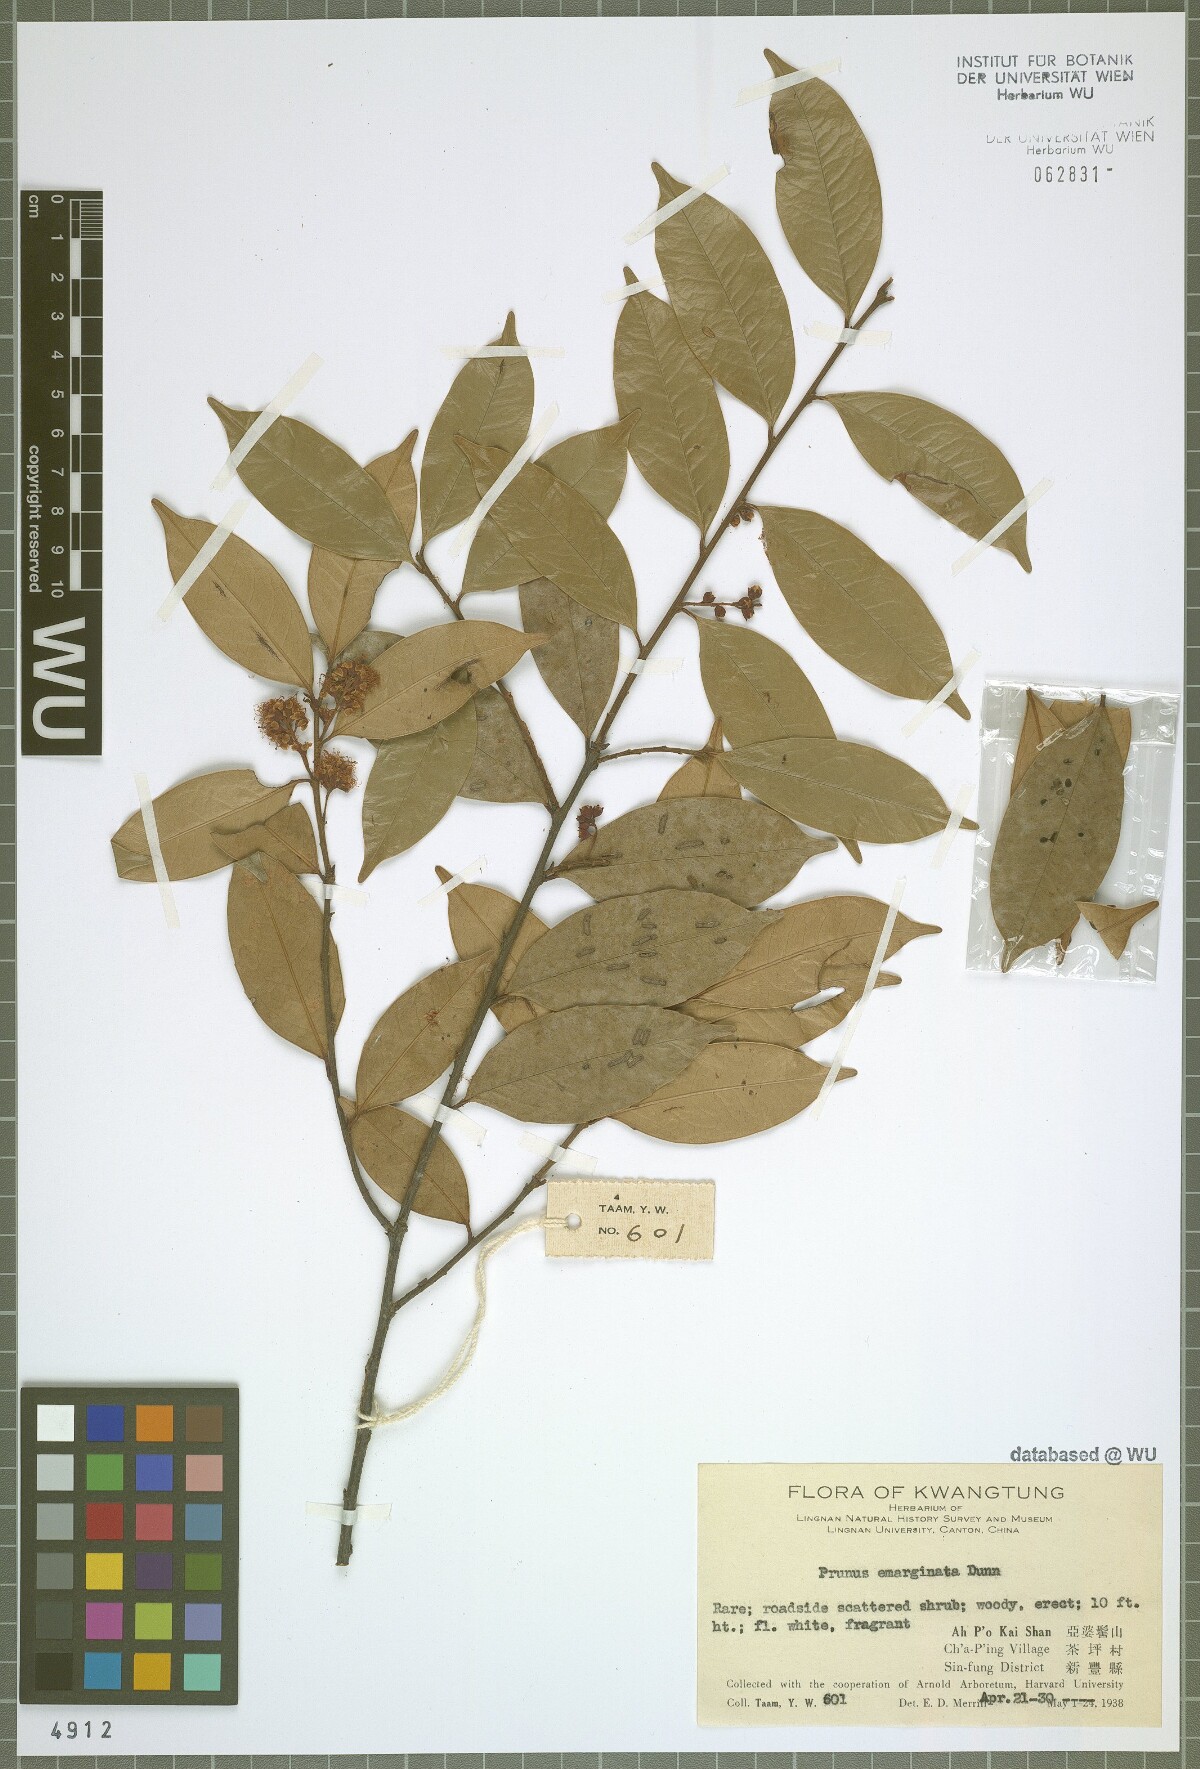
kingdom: Plantae
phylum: Tracheophyta
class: Magnoliopsida
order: Rosales
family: Rosaceae
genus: Prunus
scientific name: Prunus emarginata
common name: Bitter cherry
